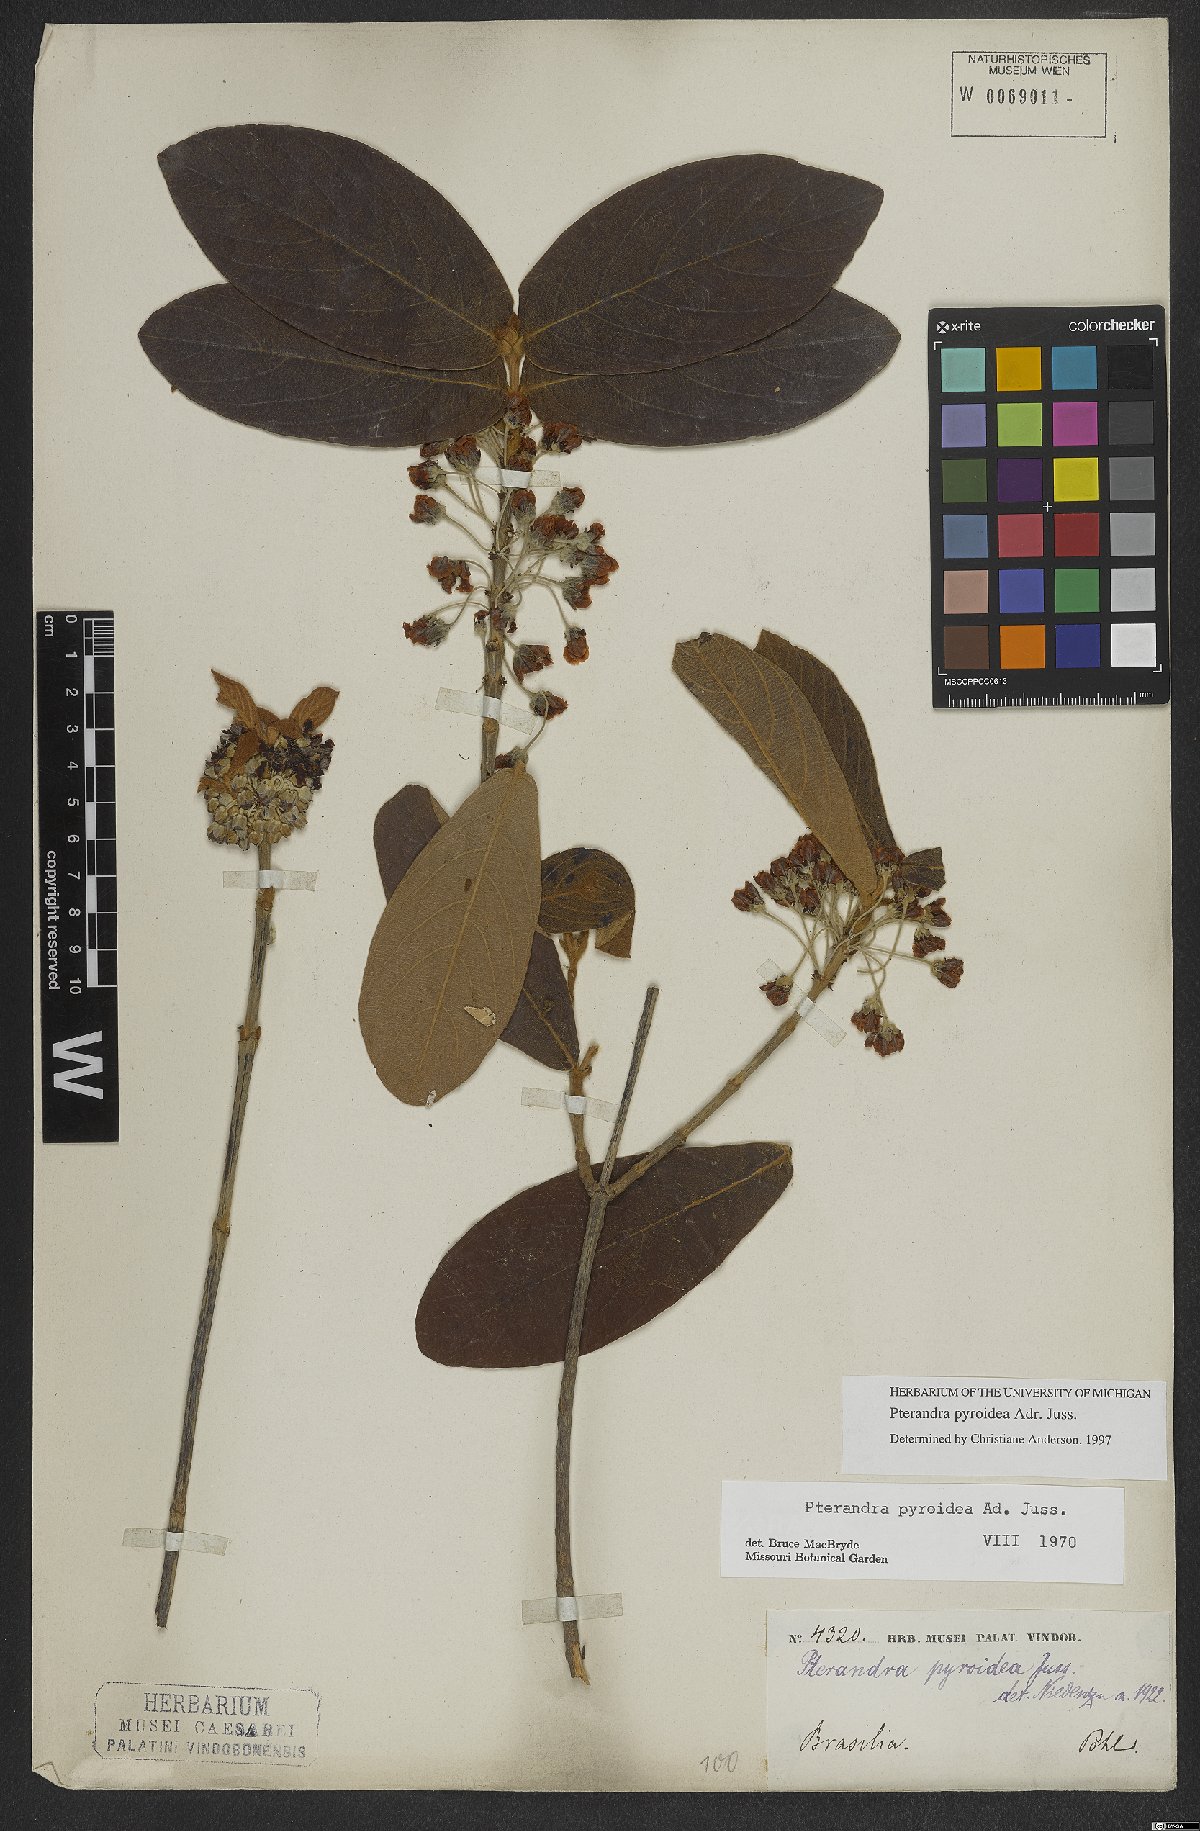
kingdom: Plantae
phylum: Tracheophyta
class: Magnoliopsida
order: Malpighiales
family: Malpighiaceae
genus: Pterandra
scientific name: Pterandra pyroidea
